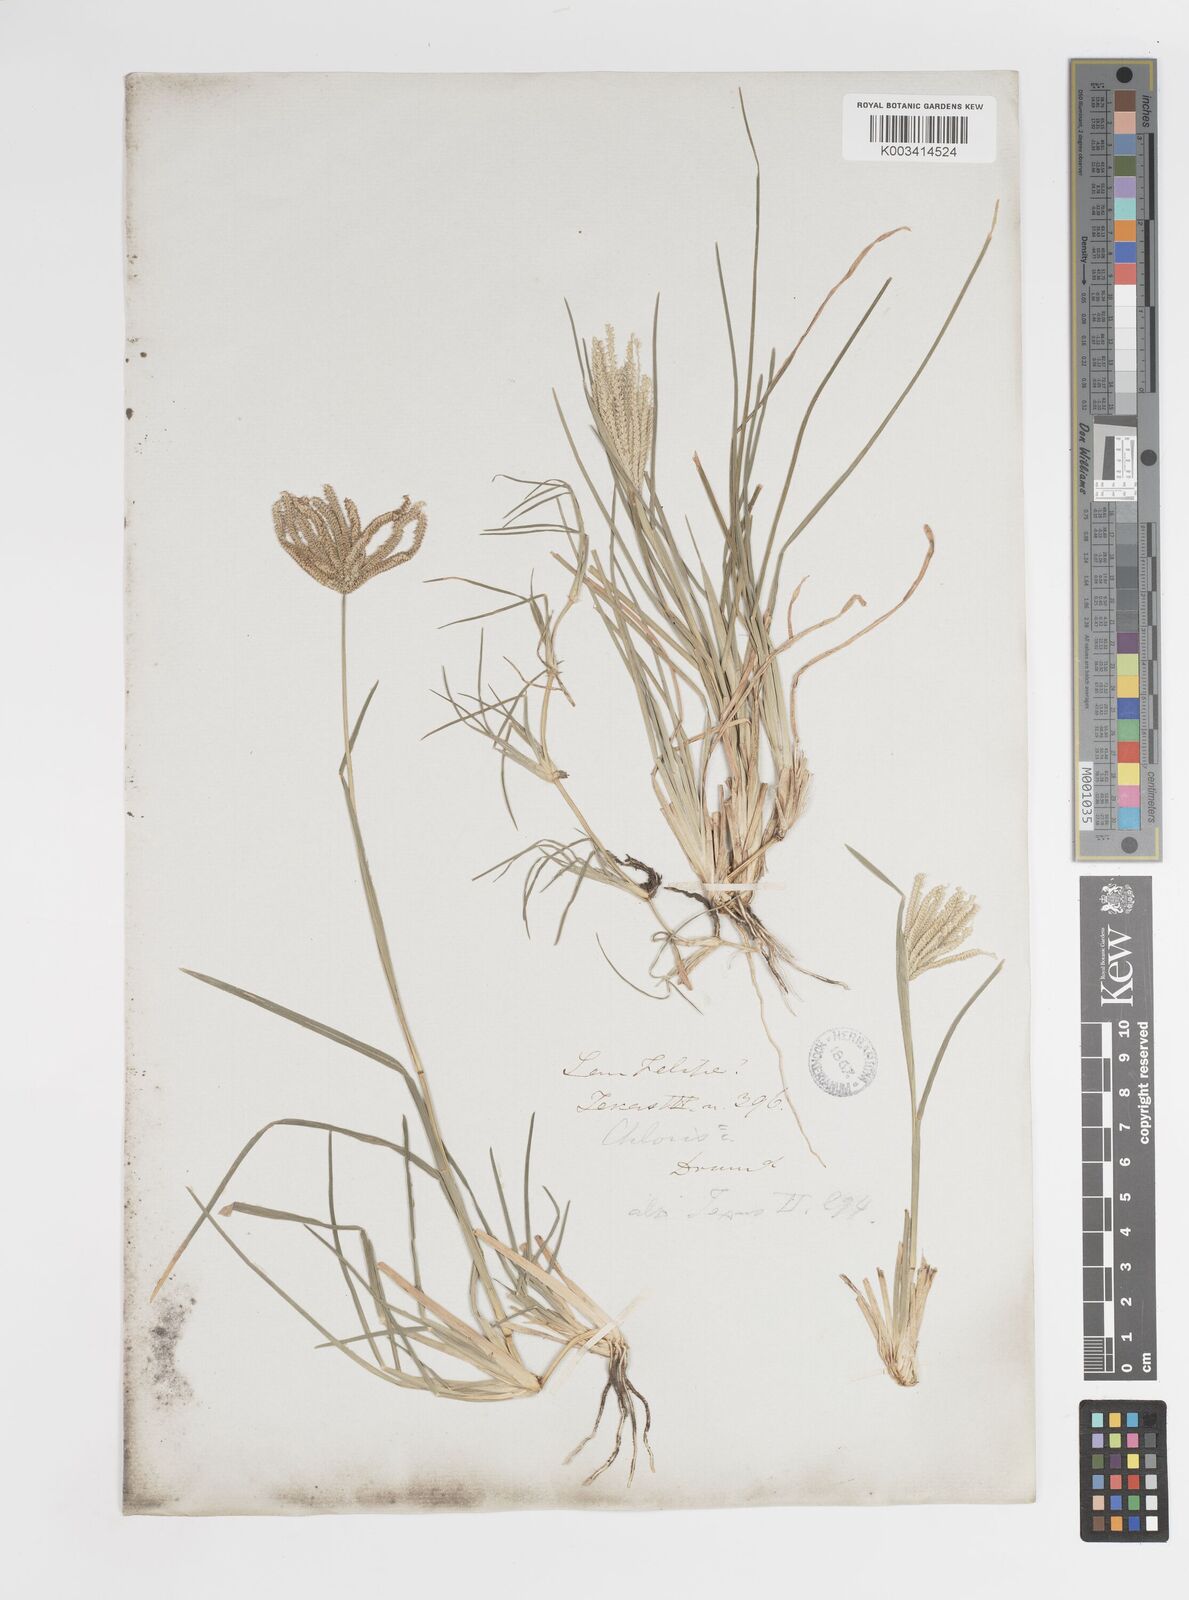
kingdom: Plantae
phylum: Tracheophyta
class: Liliopsida
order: Poales
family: Poaceae
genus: Chloris
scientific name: Chloris cucullata
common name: Hooded windmill grass
